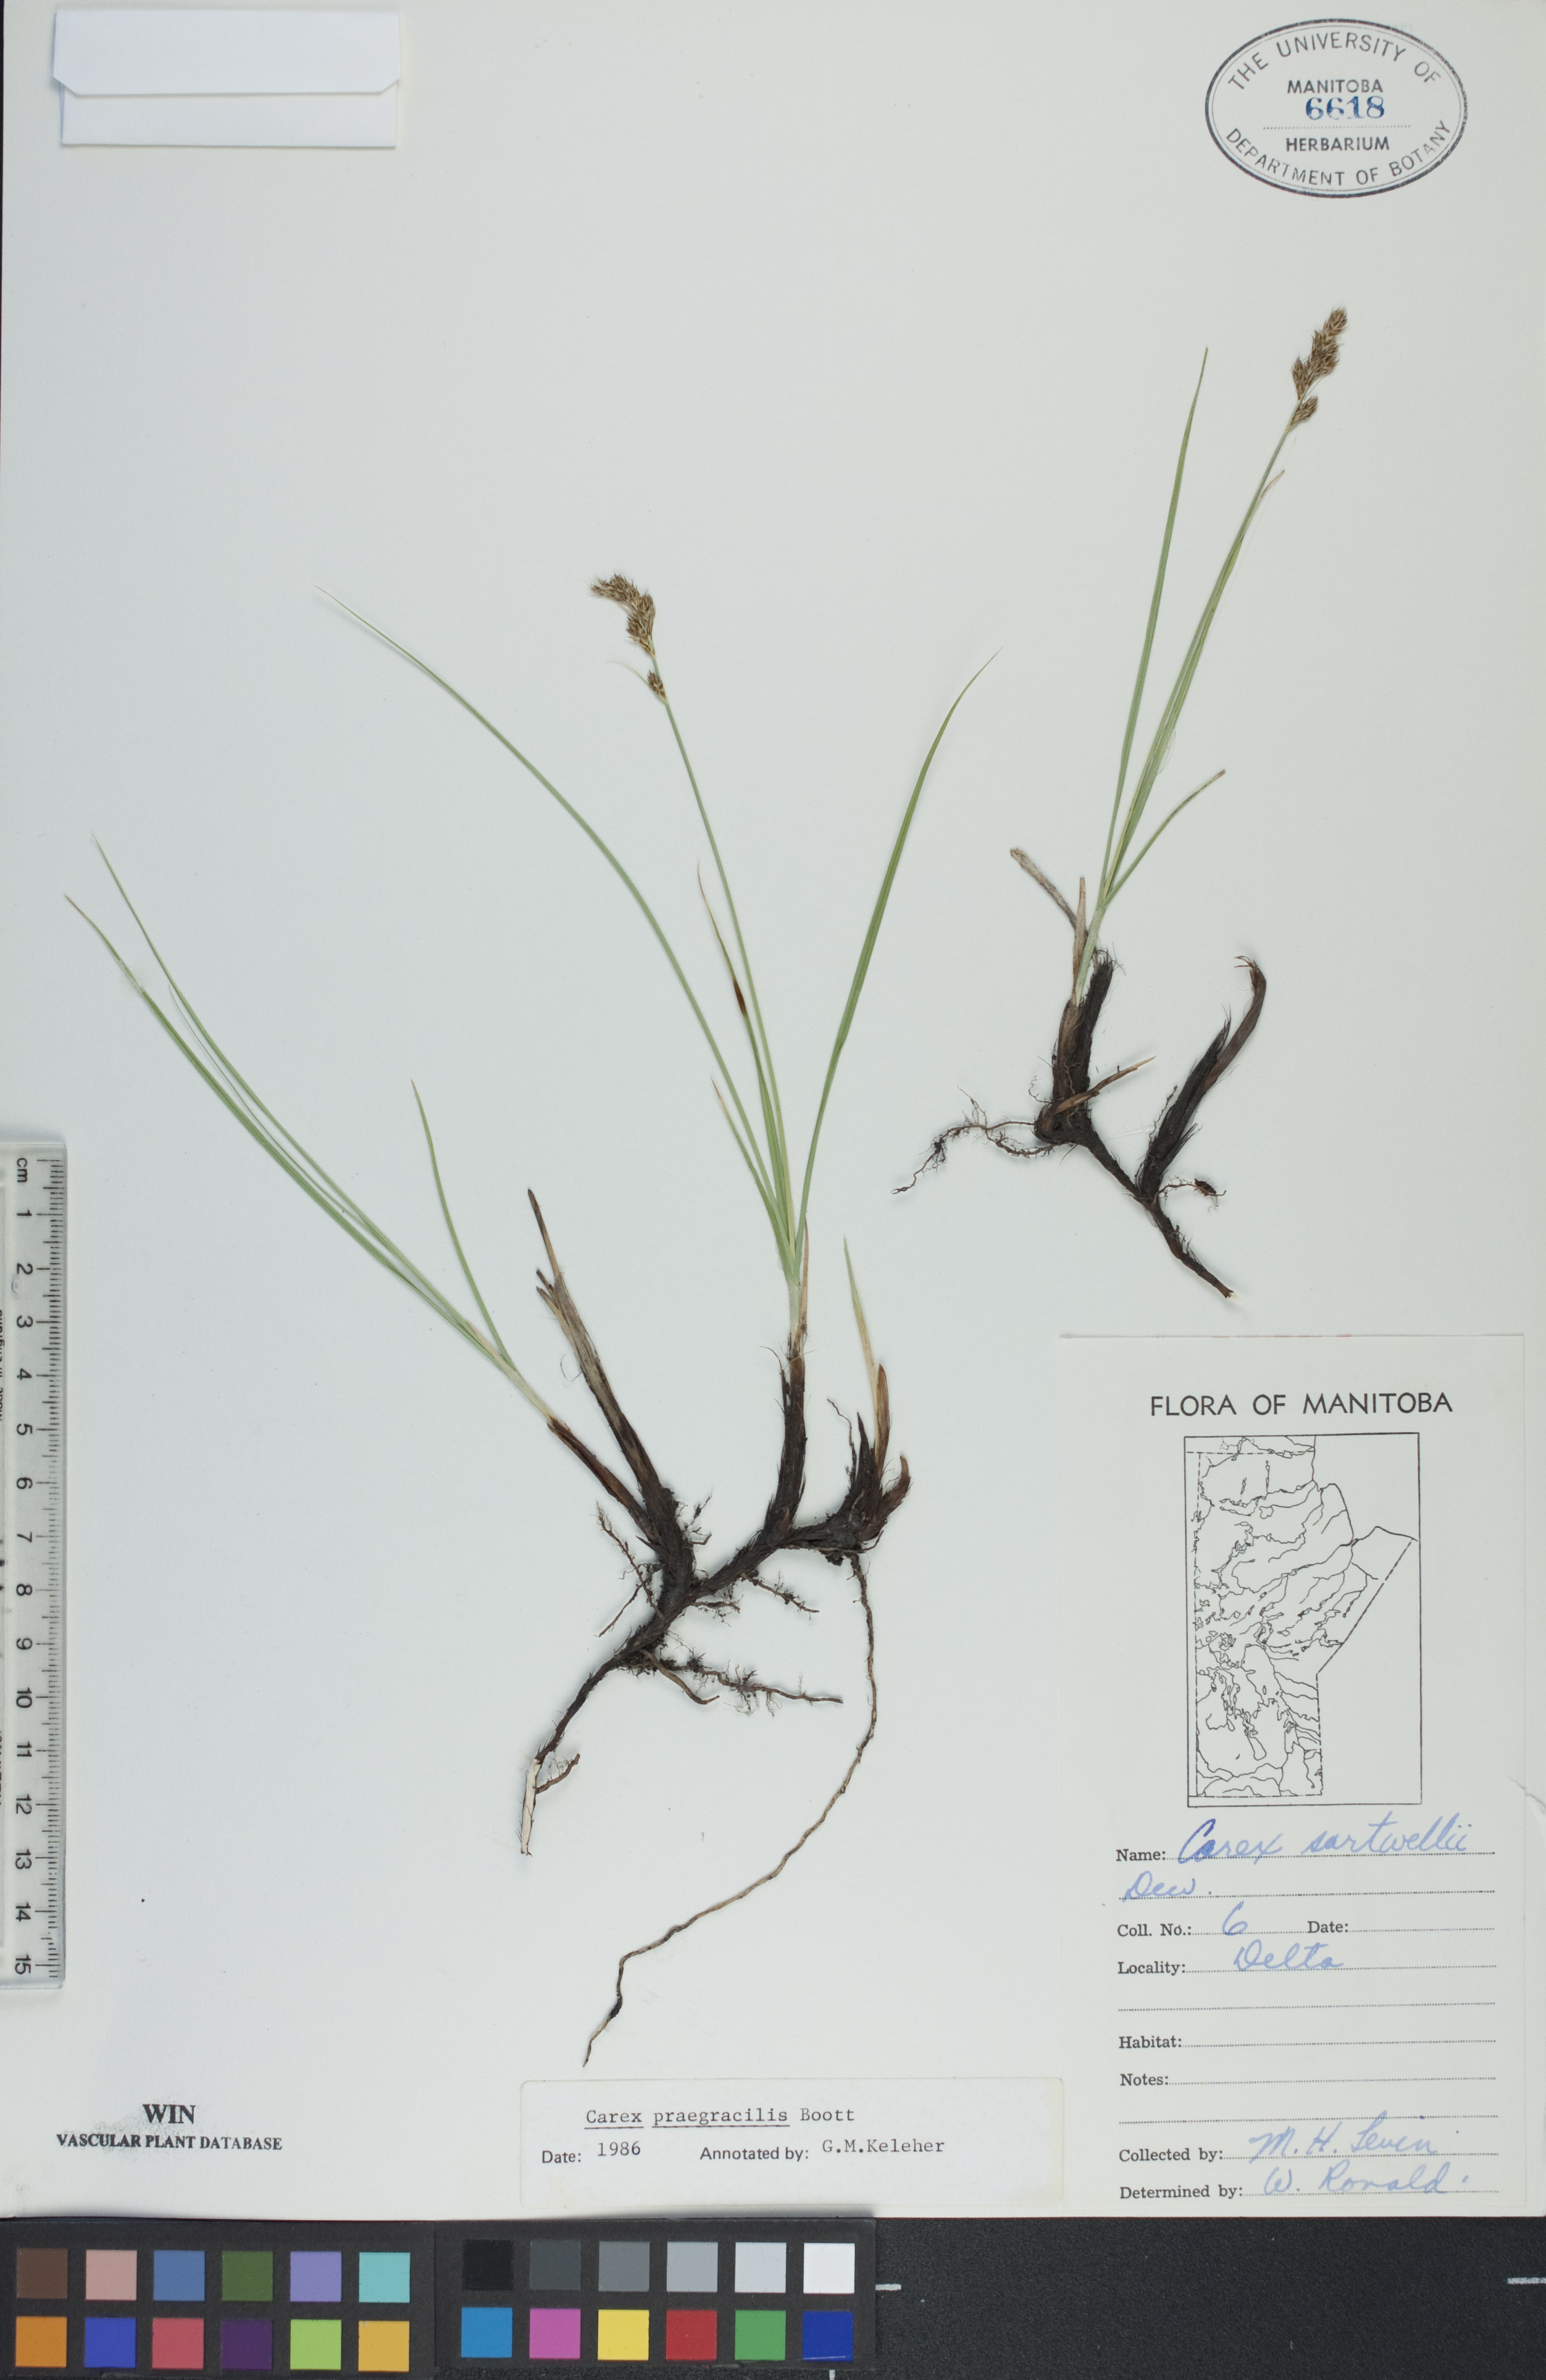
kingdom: Plantae
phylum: Tracheophyta
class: Liliopsida
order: Poales
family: Cyperaceae
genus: Carex
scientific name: Carex praegracilis
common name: Black creeper sedge
